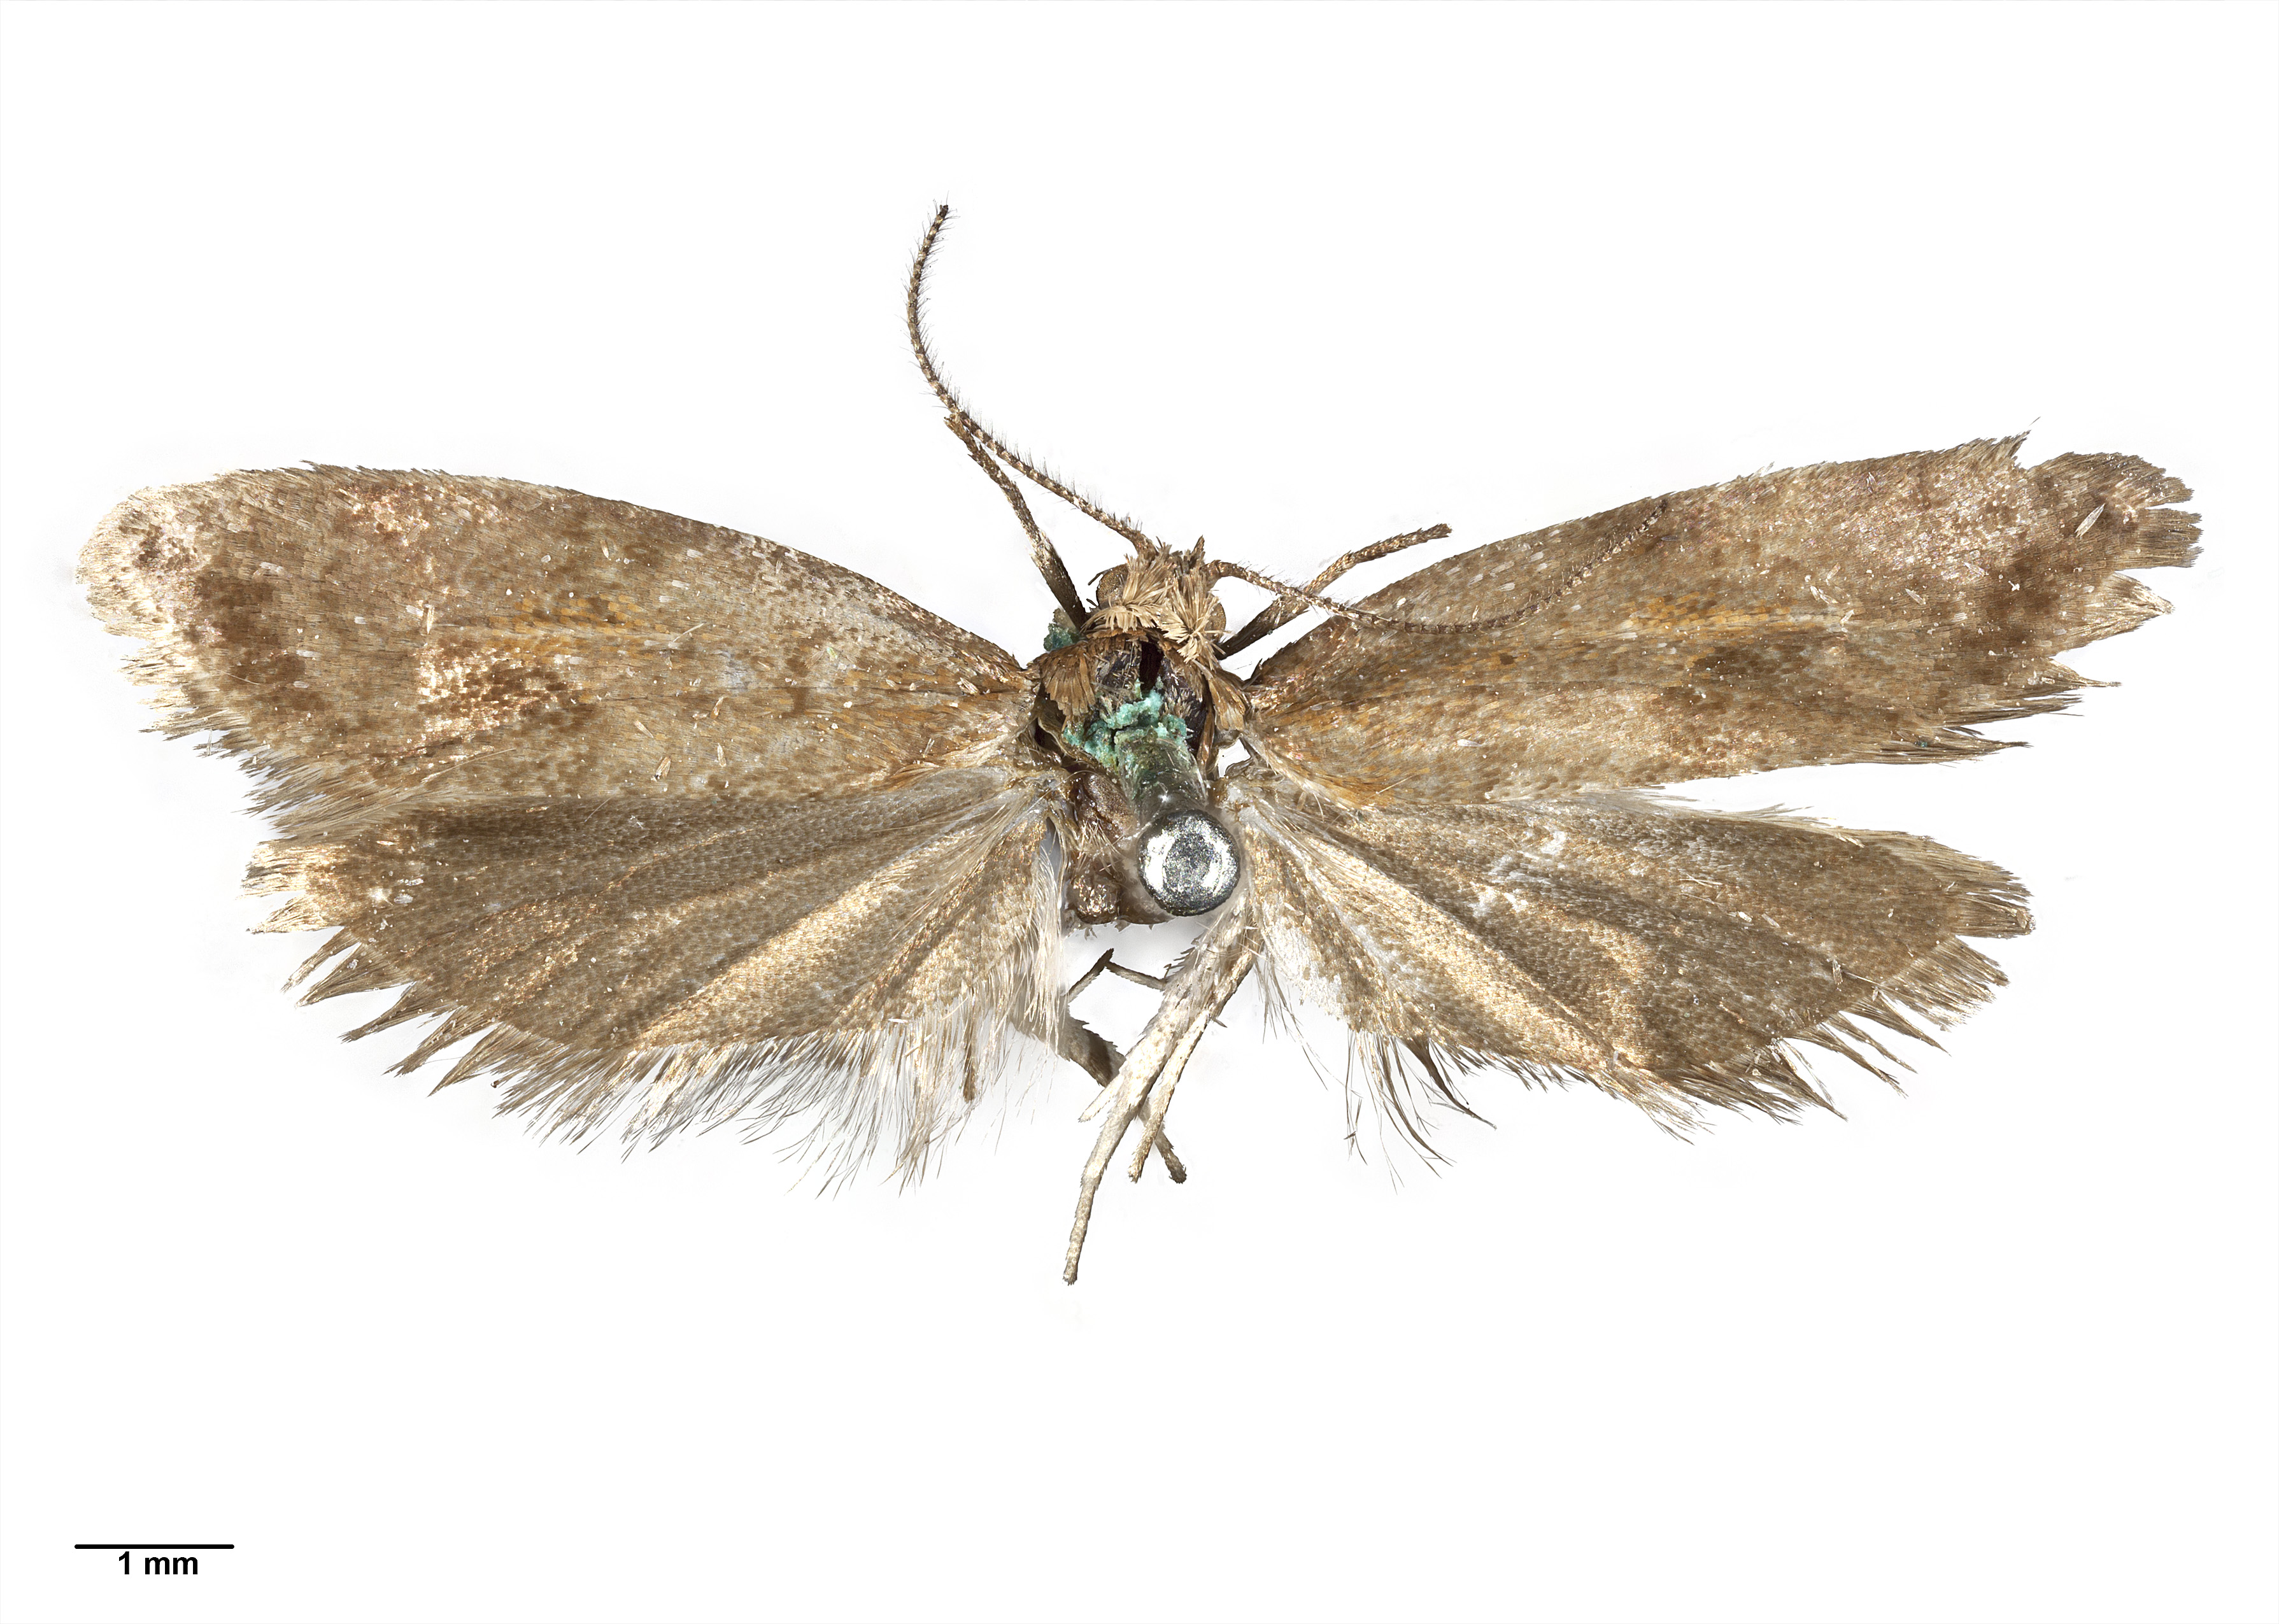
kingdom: Animalia
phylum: Arthropoda
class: Insecta
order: Lepidoptera
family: Tortricidae
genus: Maoritenes
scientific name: Maoritenes modesta
